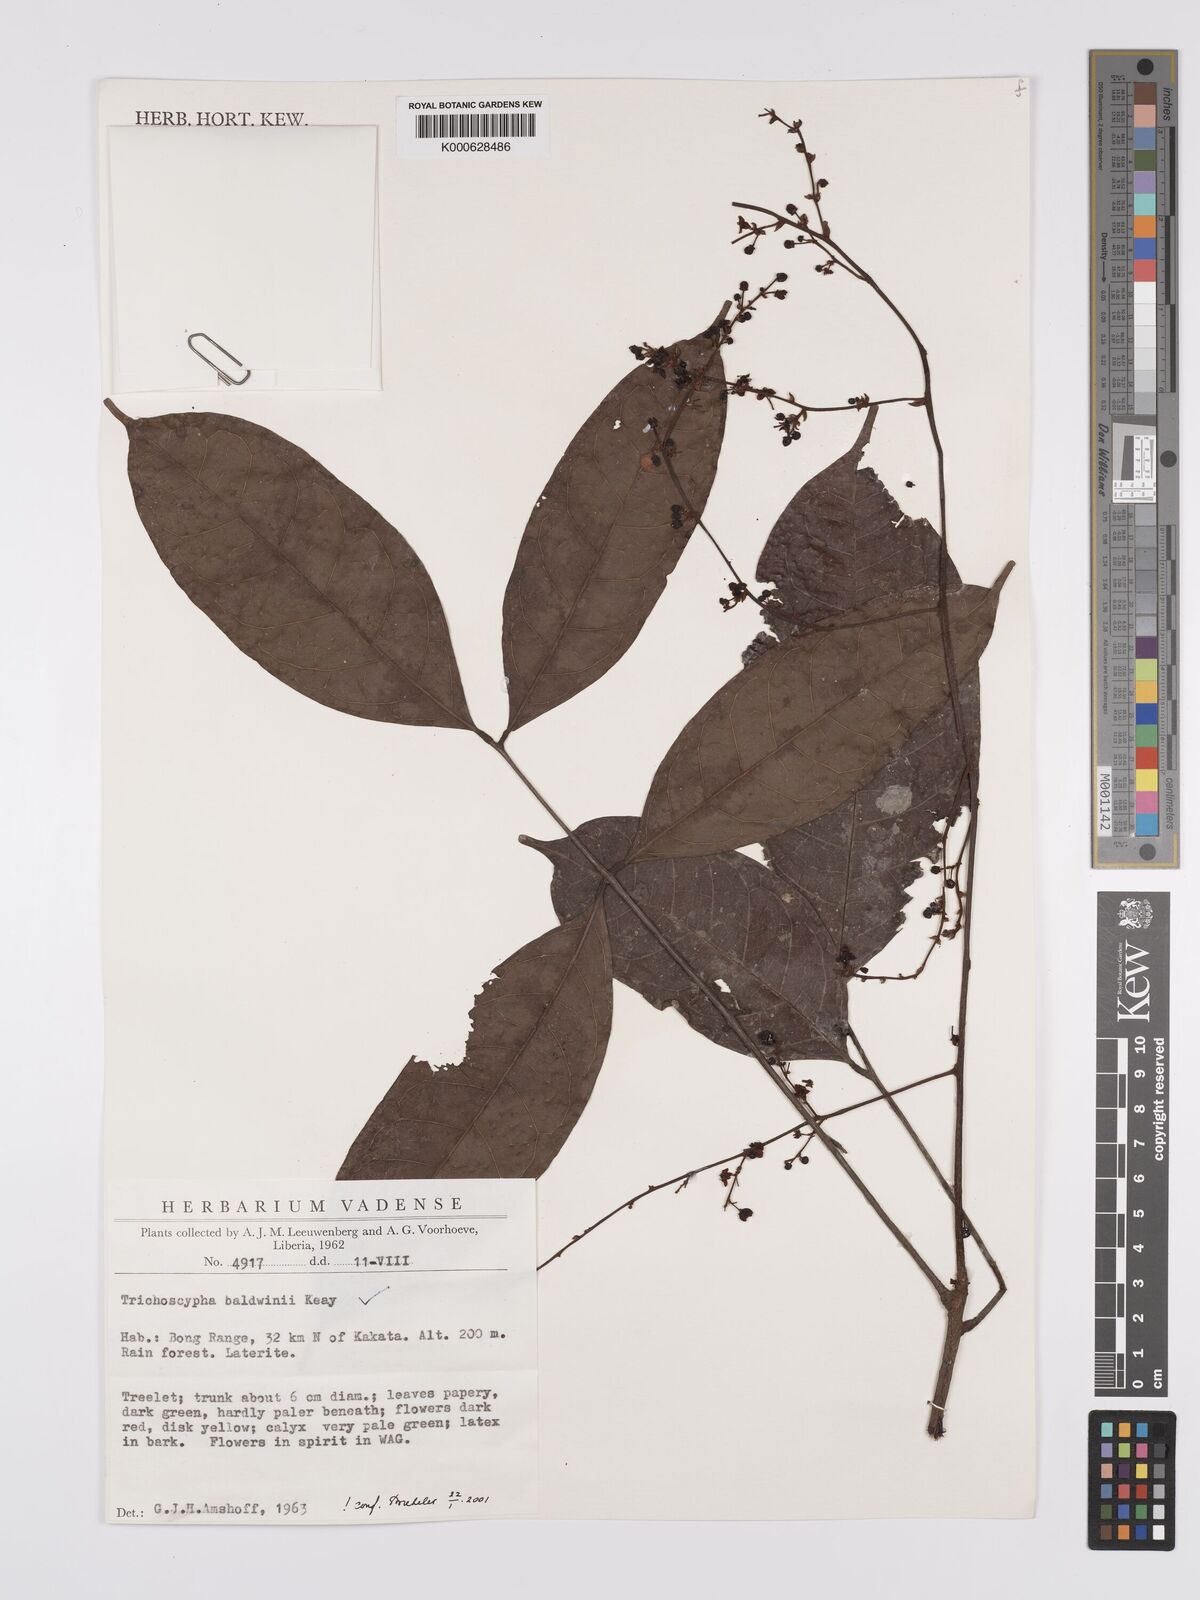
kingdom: Plantae
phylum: Tracheophyta
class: Magnoliopsida
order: Sapindales
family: Anacardiaceae
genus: Trichoscypha
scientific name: Trichoscypha baldwinii
